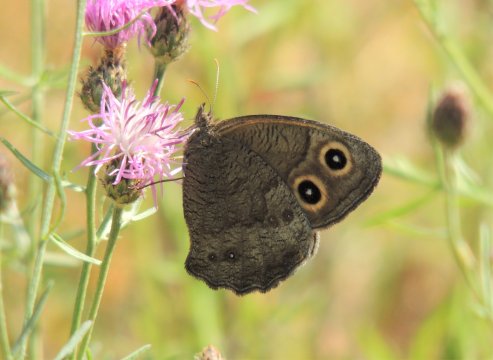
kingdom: Animalia
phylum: Arthropoda
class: Insecta
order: Lepidoptera
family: Nymphalidae
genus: Cercyonis
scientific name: Cercyonis pegala
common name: Common Wood-Nymph
